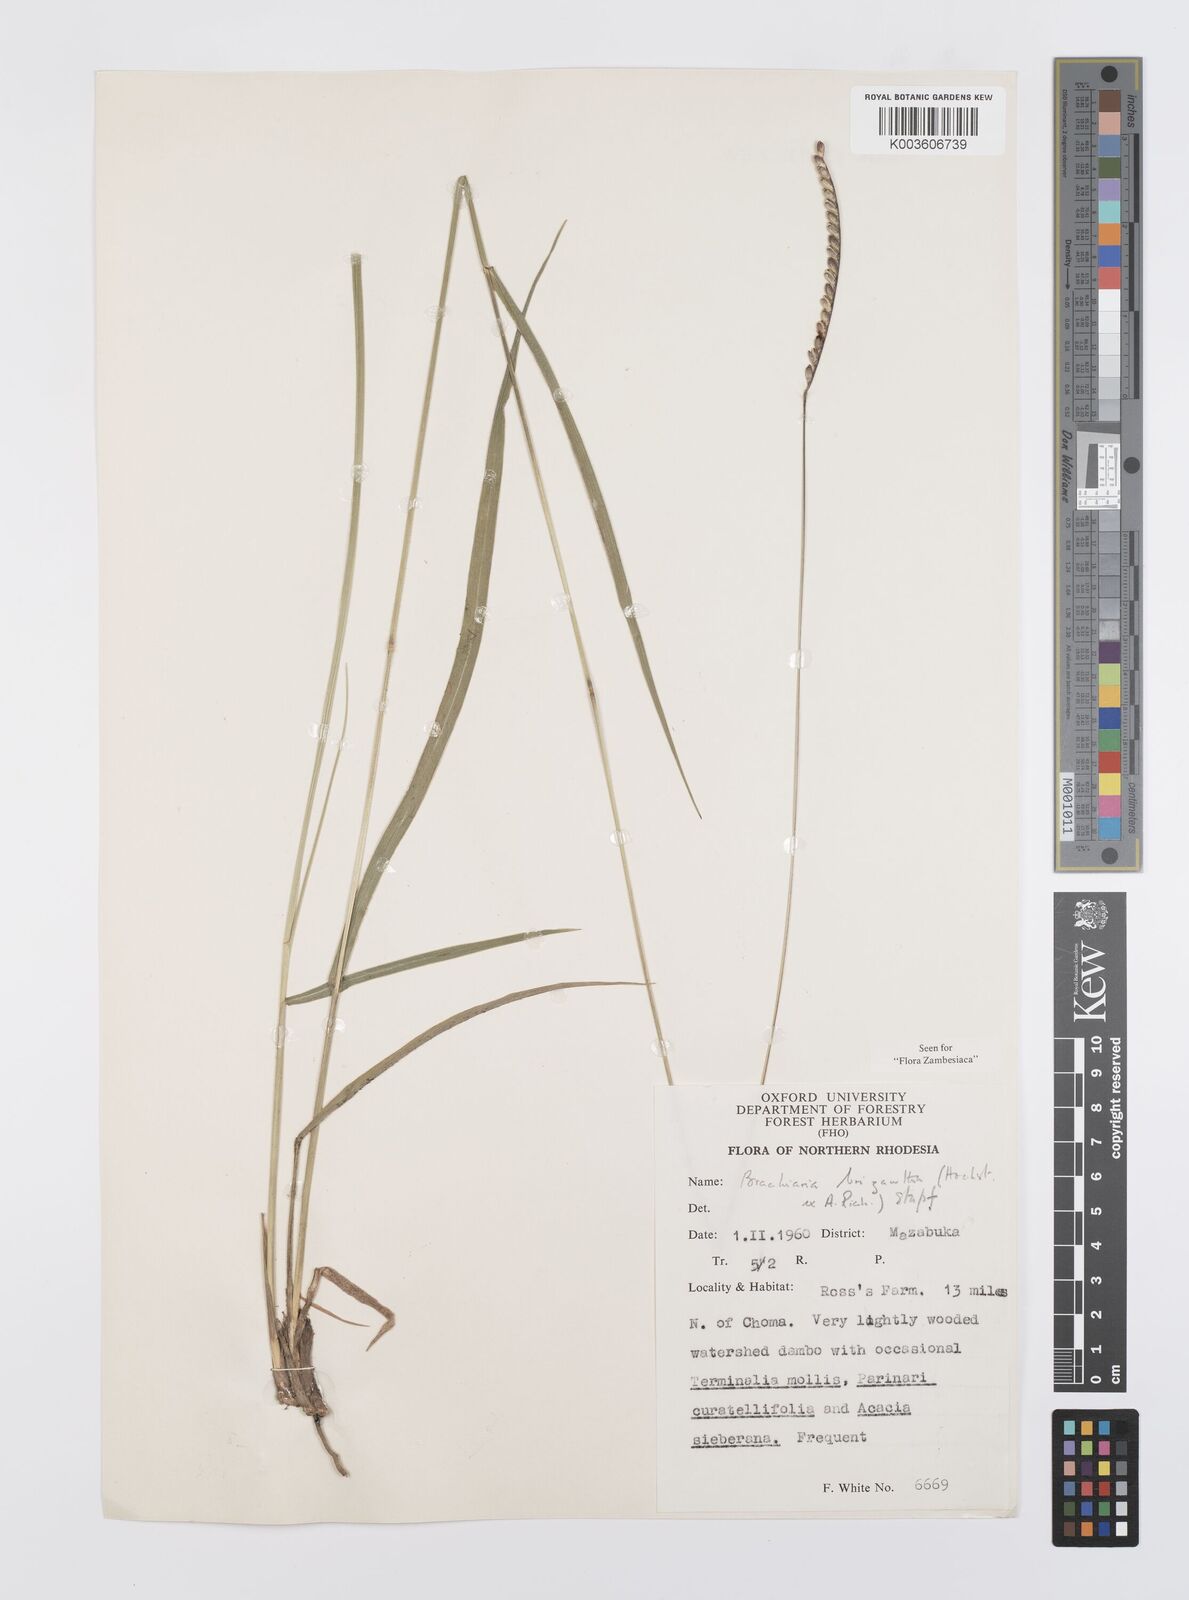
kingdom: Plantae
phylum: Tracheophyta
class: Liliopsida
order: Poales
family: Poaceae
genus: Urochloa
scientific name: Urochloa brizantha
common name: Palisade signalgrass
